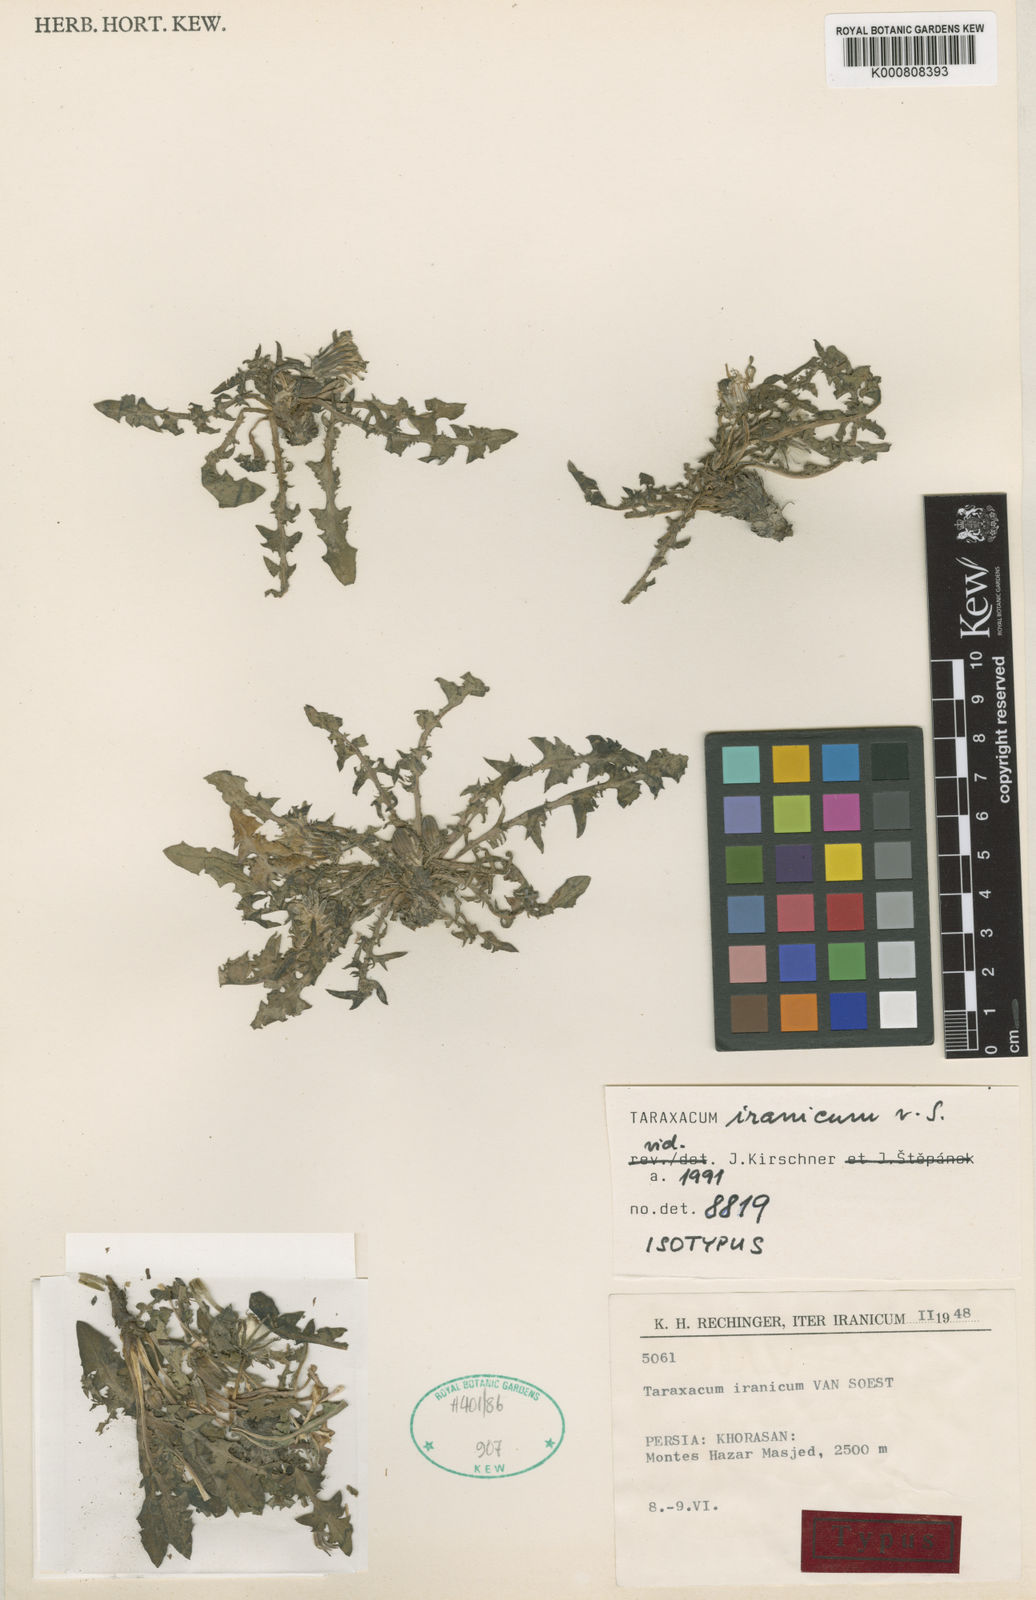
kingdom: Plantae
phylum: Tracheophyta
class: Magnoliopsida
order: Asterales
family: Asteraceae
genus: Taraxacum
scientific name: Taraxacum iranicum
